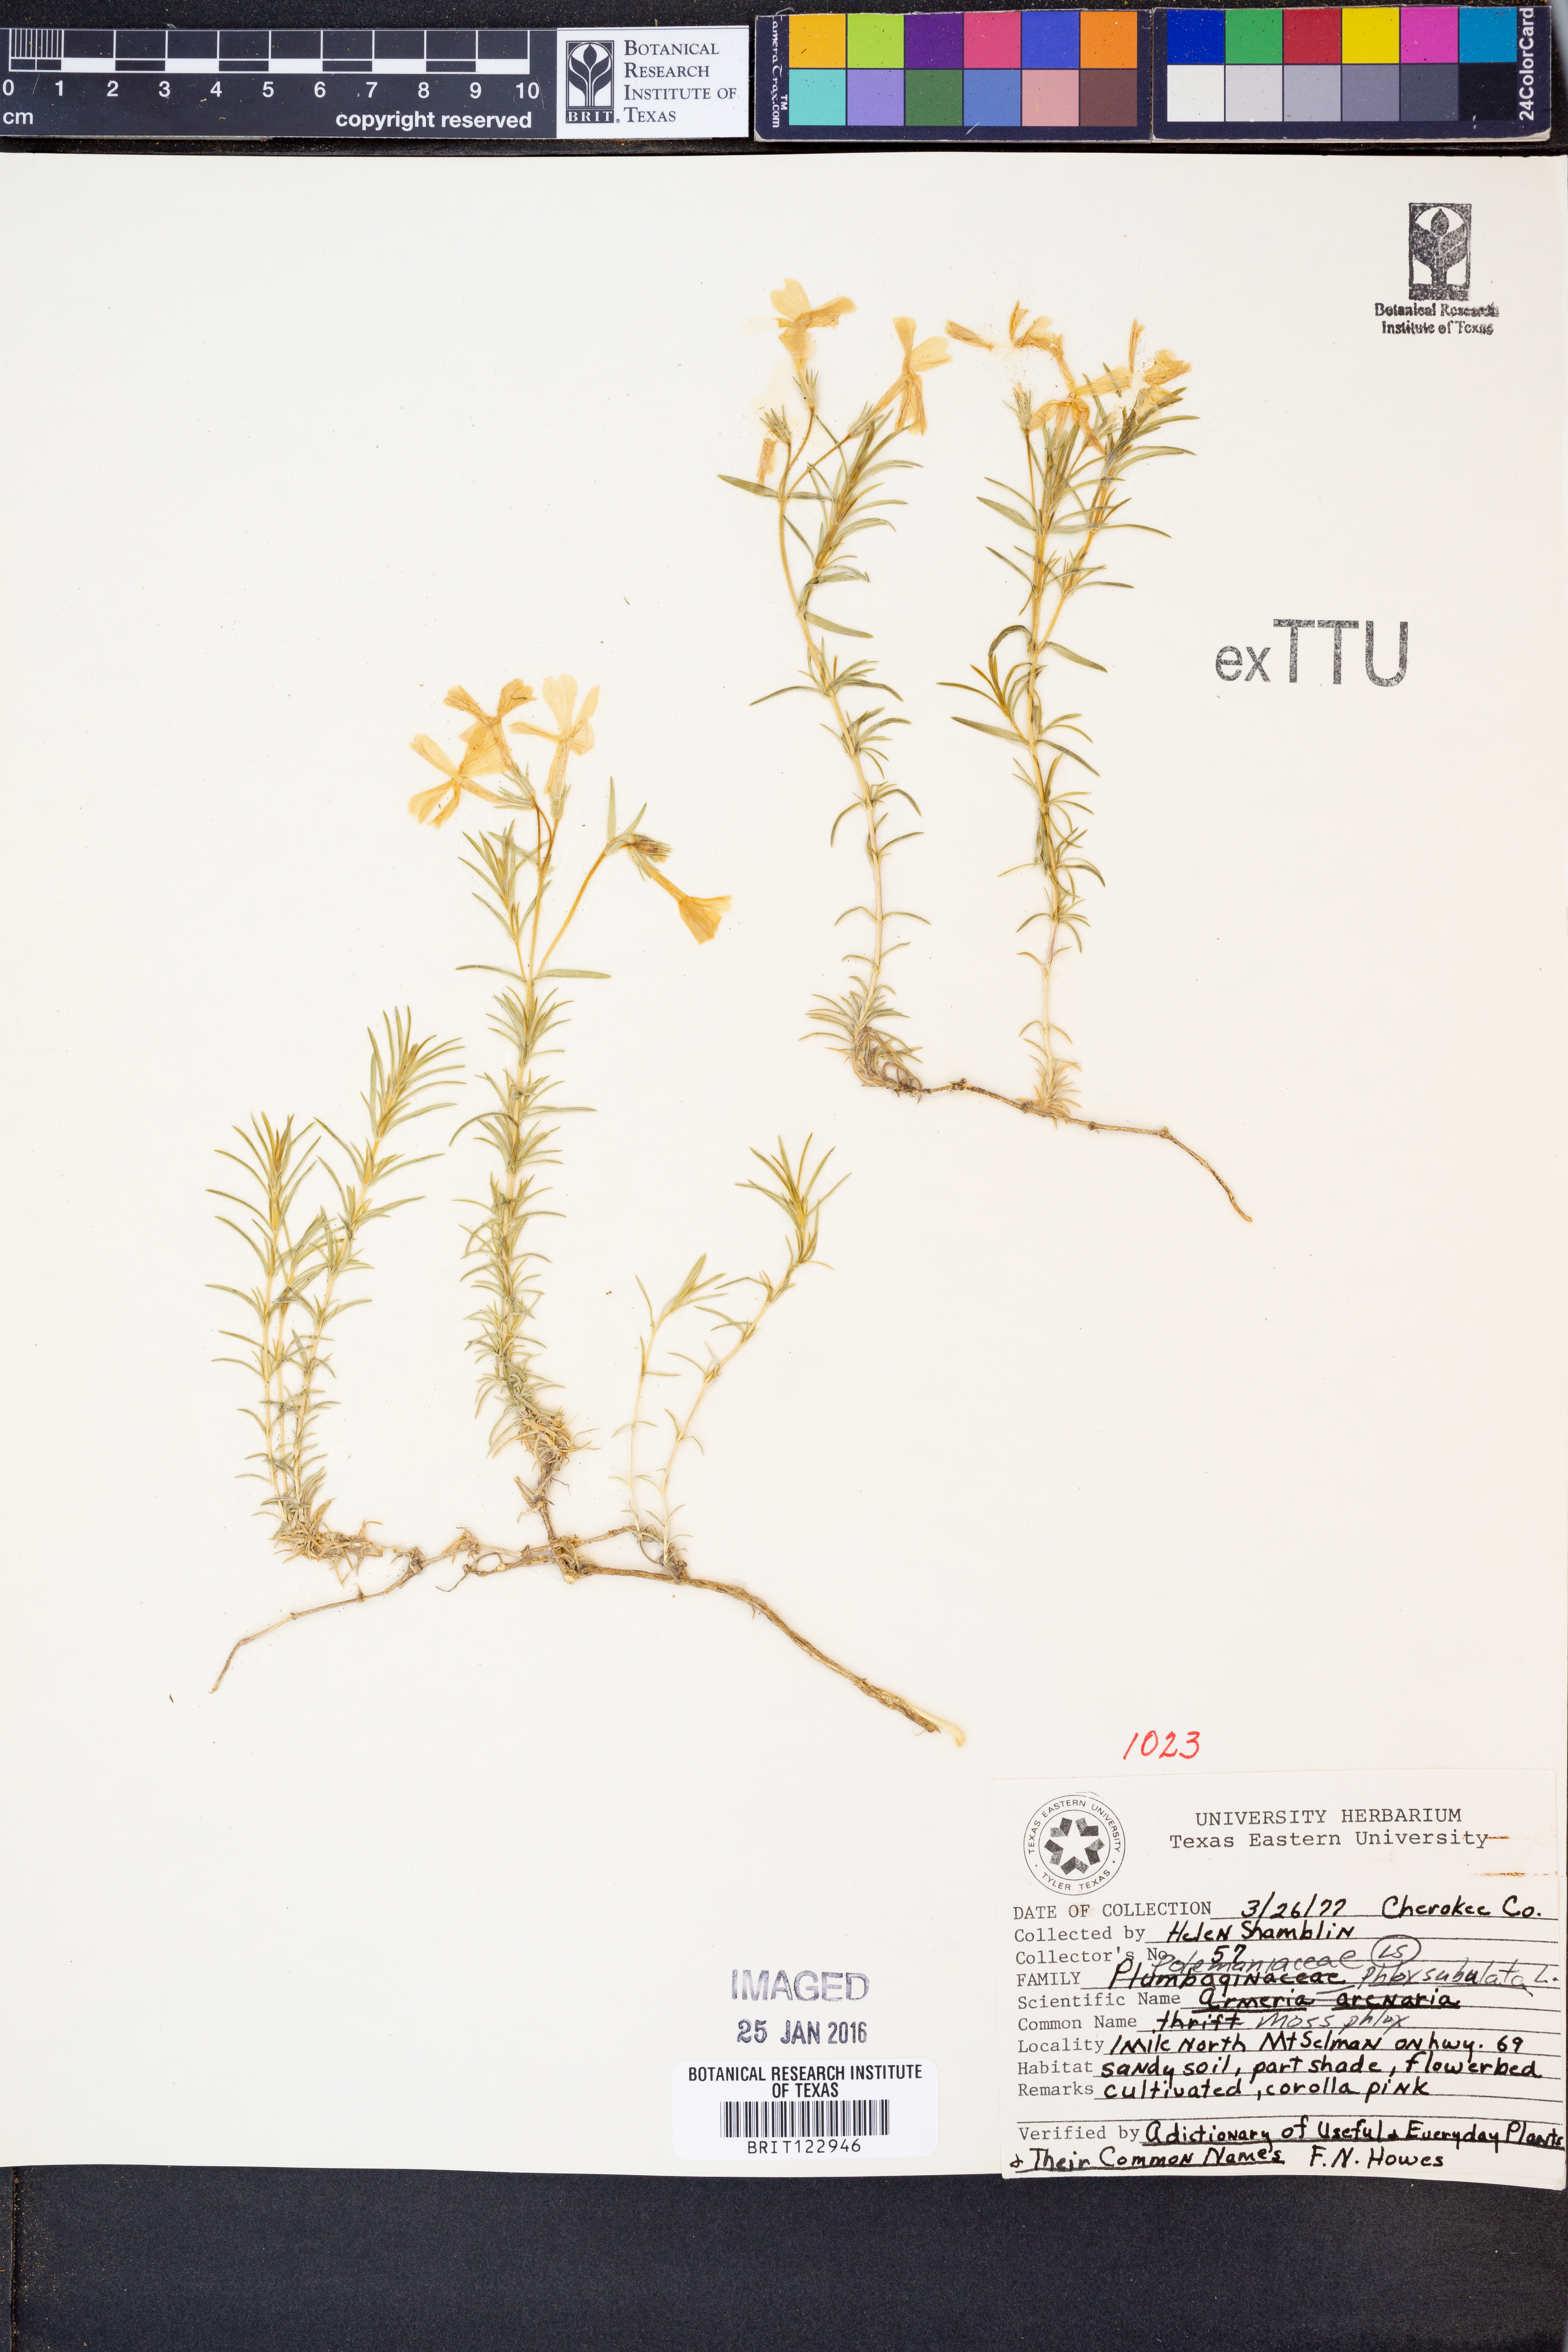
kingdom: Plantae
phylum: Tracheophyta
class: Magnoliopsida
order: Ericales
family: Polemoniaceae
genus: Phlox
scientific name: Phlox subulata
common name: Moss phlox
